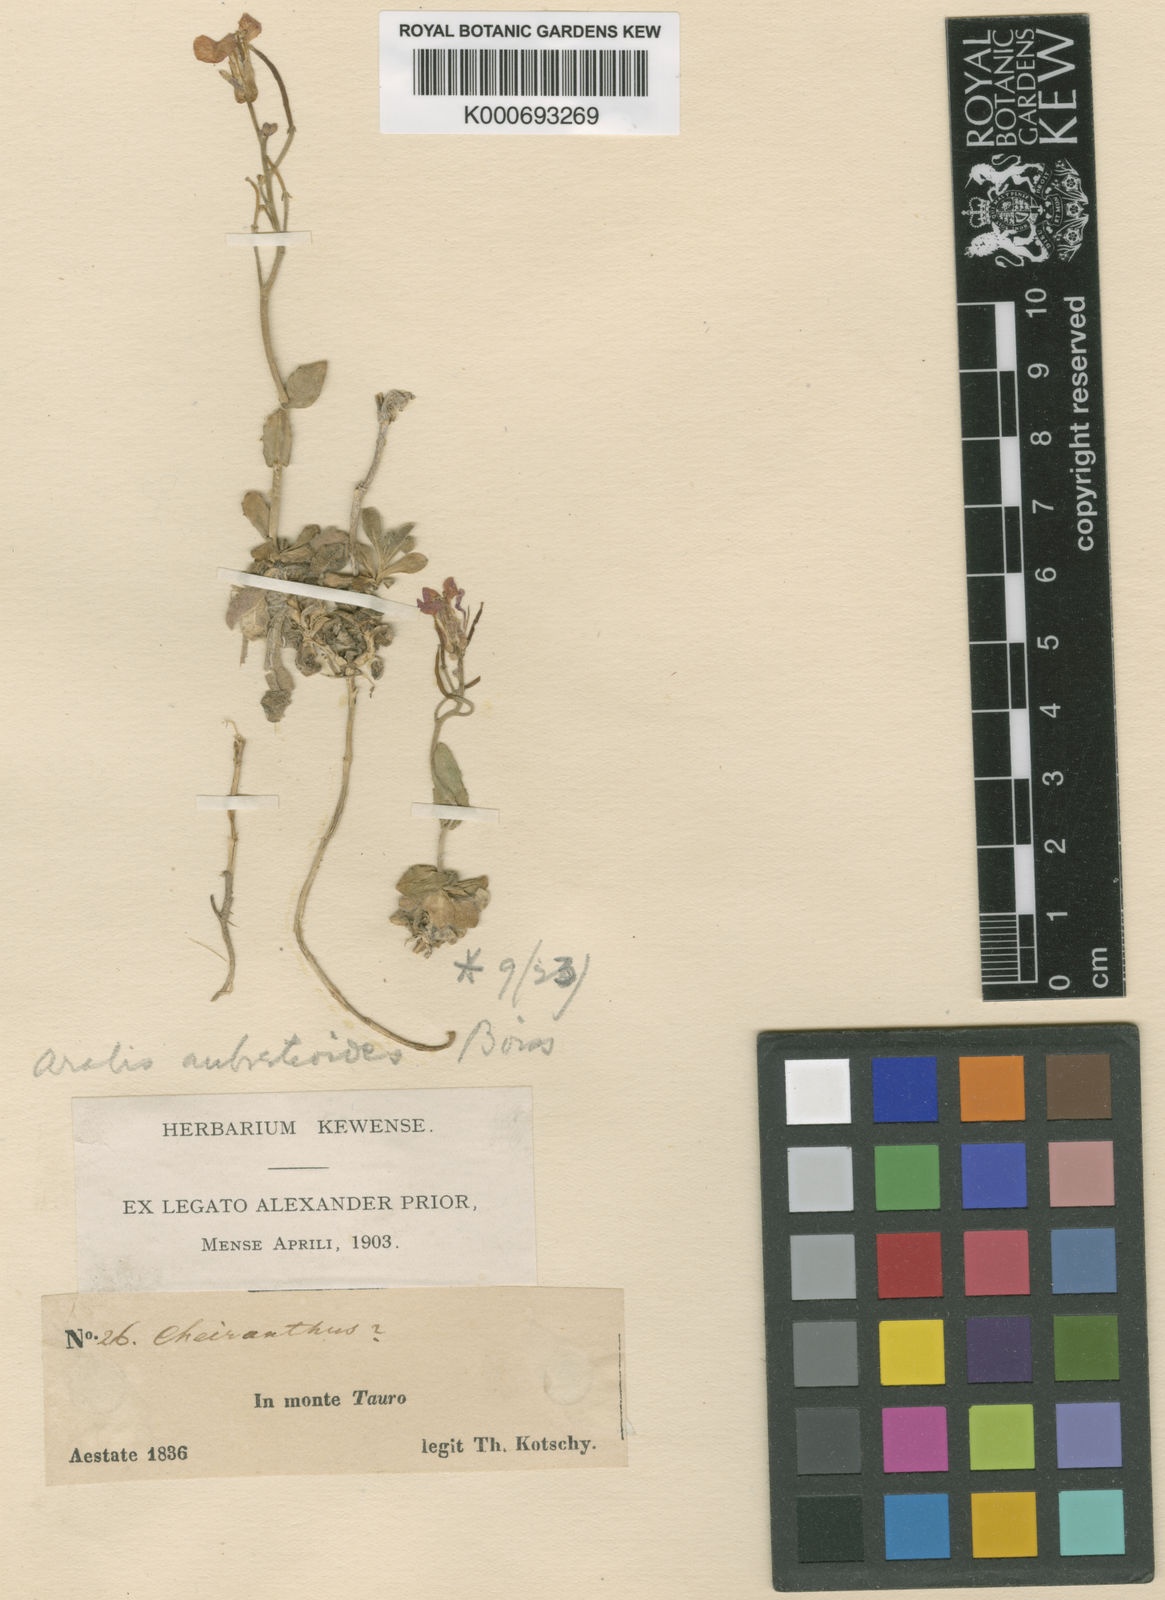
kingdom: Plantae
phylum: Tracheophyta
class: Magnoliopsida
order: Brassicales
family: Brassicaceae
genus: Arabis
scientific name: Arabis aubrietioides
